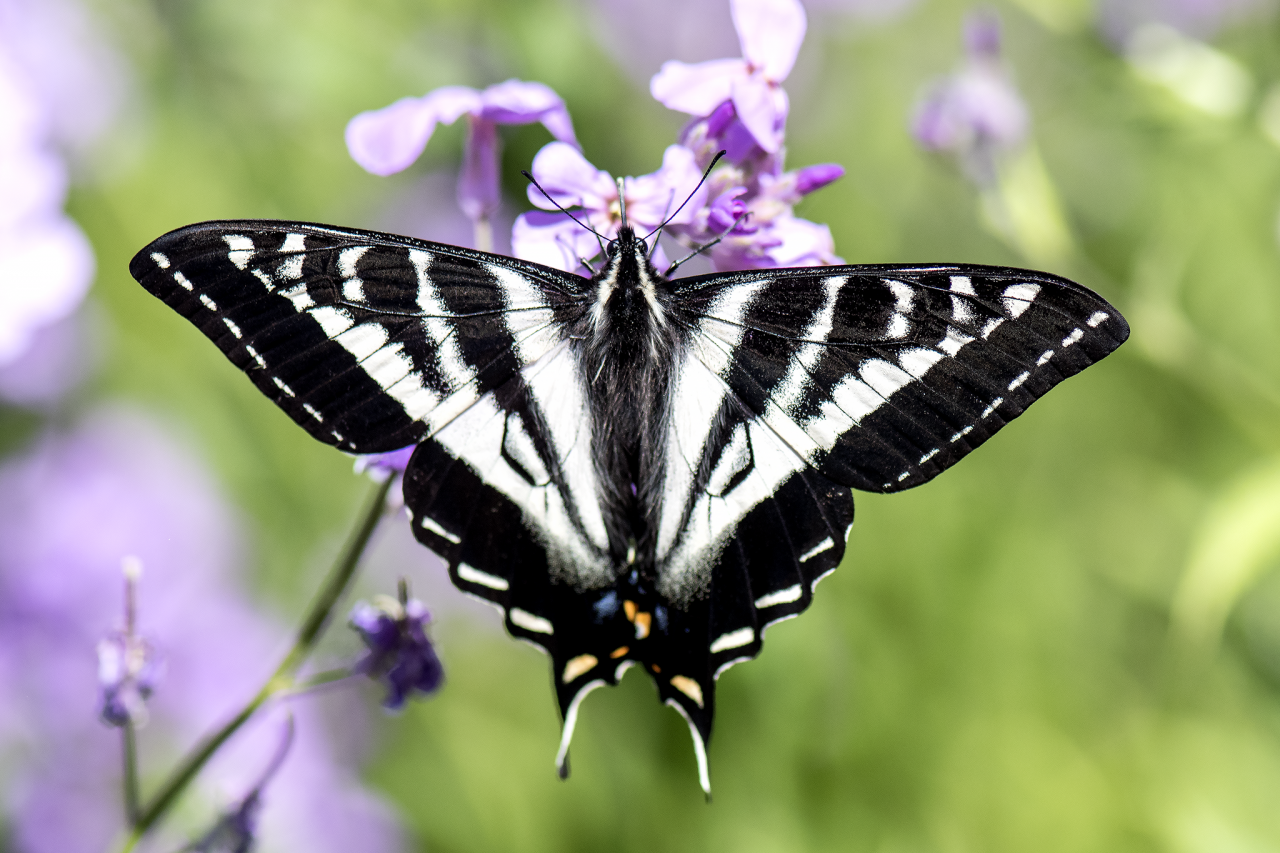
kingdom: Animalia
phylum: Arthropoda
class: Insecta
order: Lepidoptera
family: Papilionidae
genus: Pterourus
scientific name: Pterourus canadensis
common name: Canadian Tiger Swallowtail
